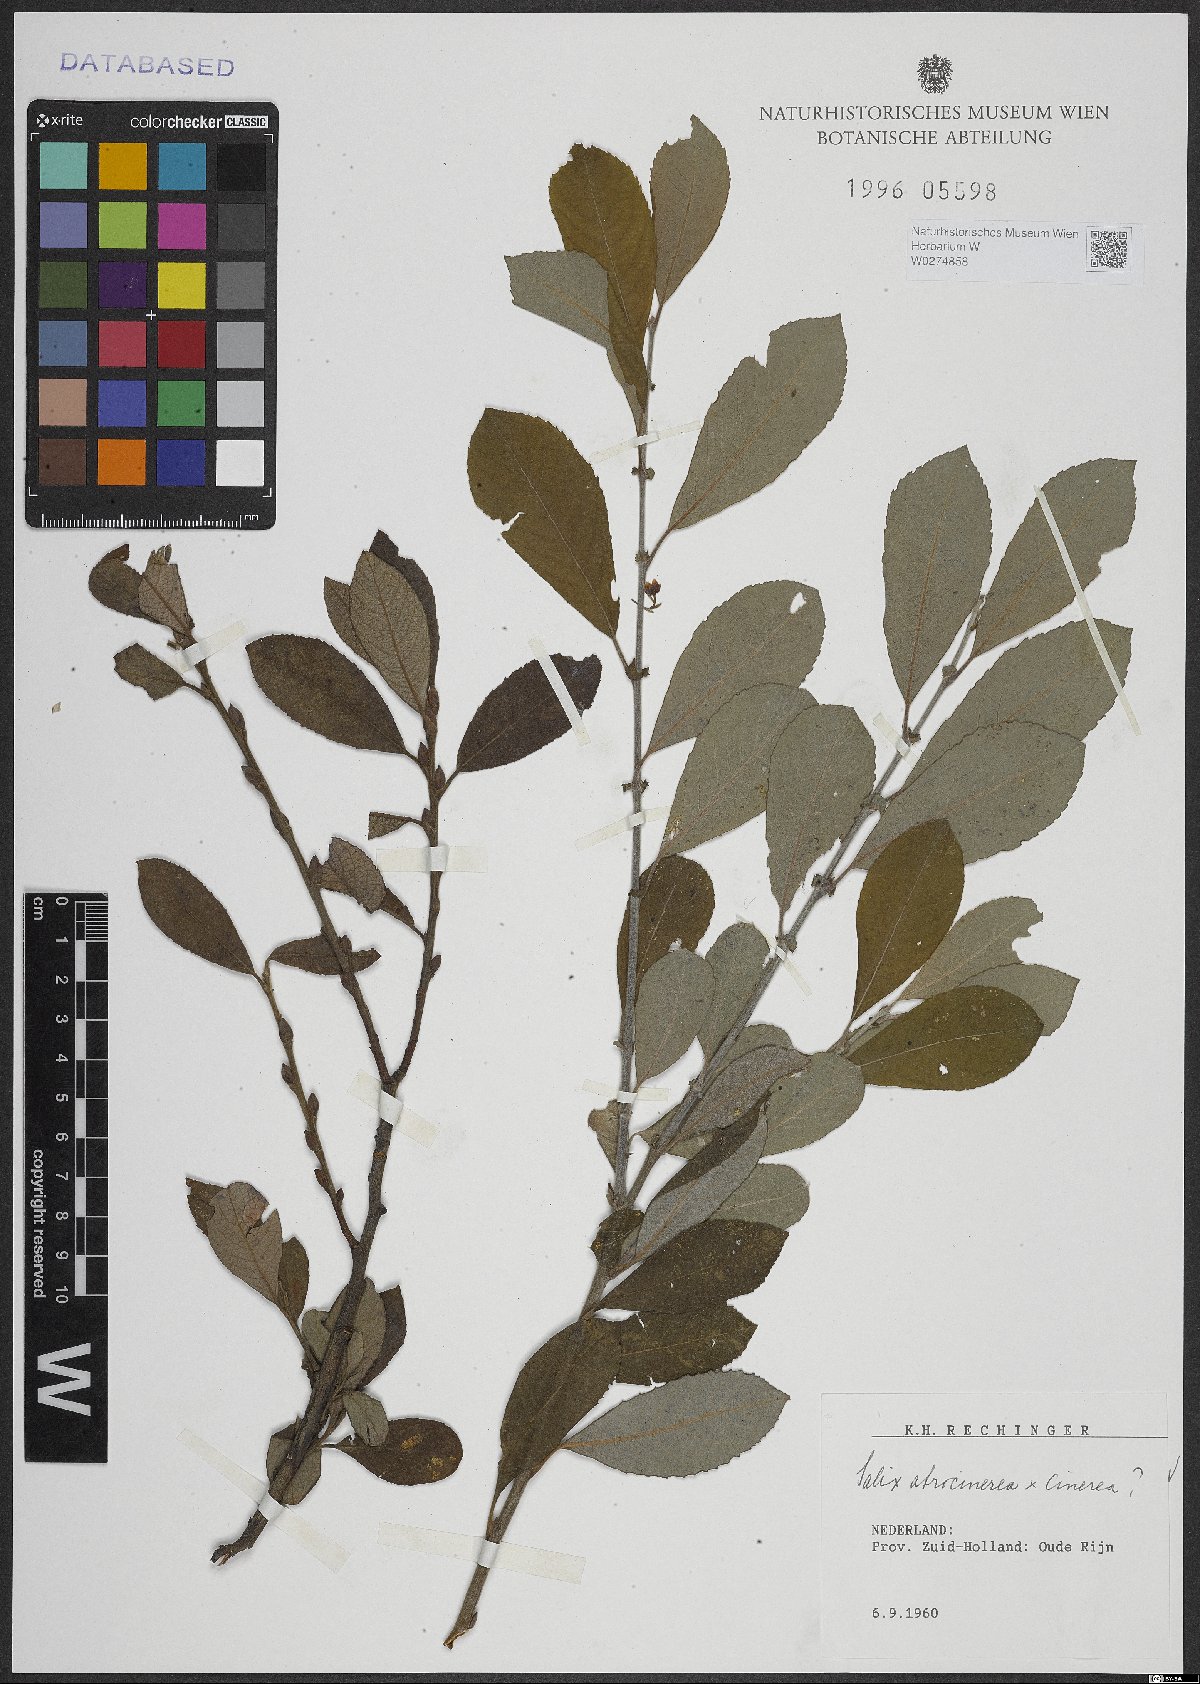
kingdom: Plantae
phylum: Tracheophyta
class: Magnoliopsida
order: Malpighiales
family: Salicaceae
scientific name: Salicaceae
